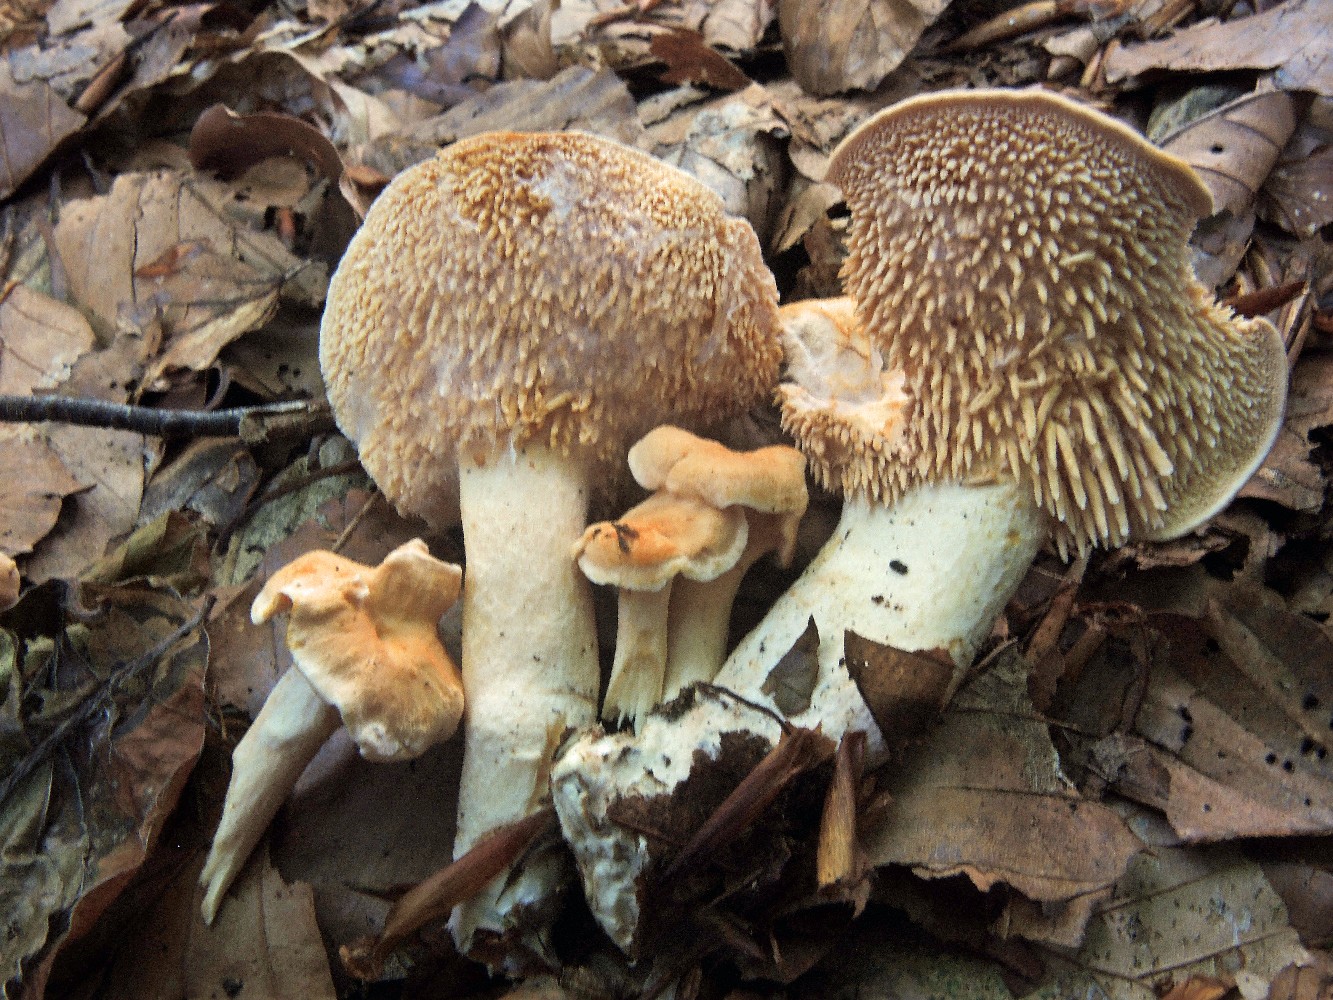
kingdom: Fungi
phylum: Basidiomycota
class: Agaricomycetes
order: Cantharellales
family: Hydnaceae
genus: Hydnum
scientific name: Hydnum rufescens
